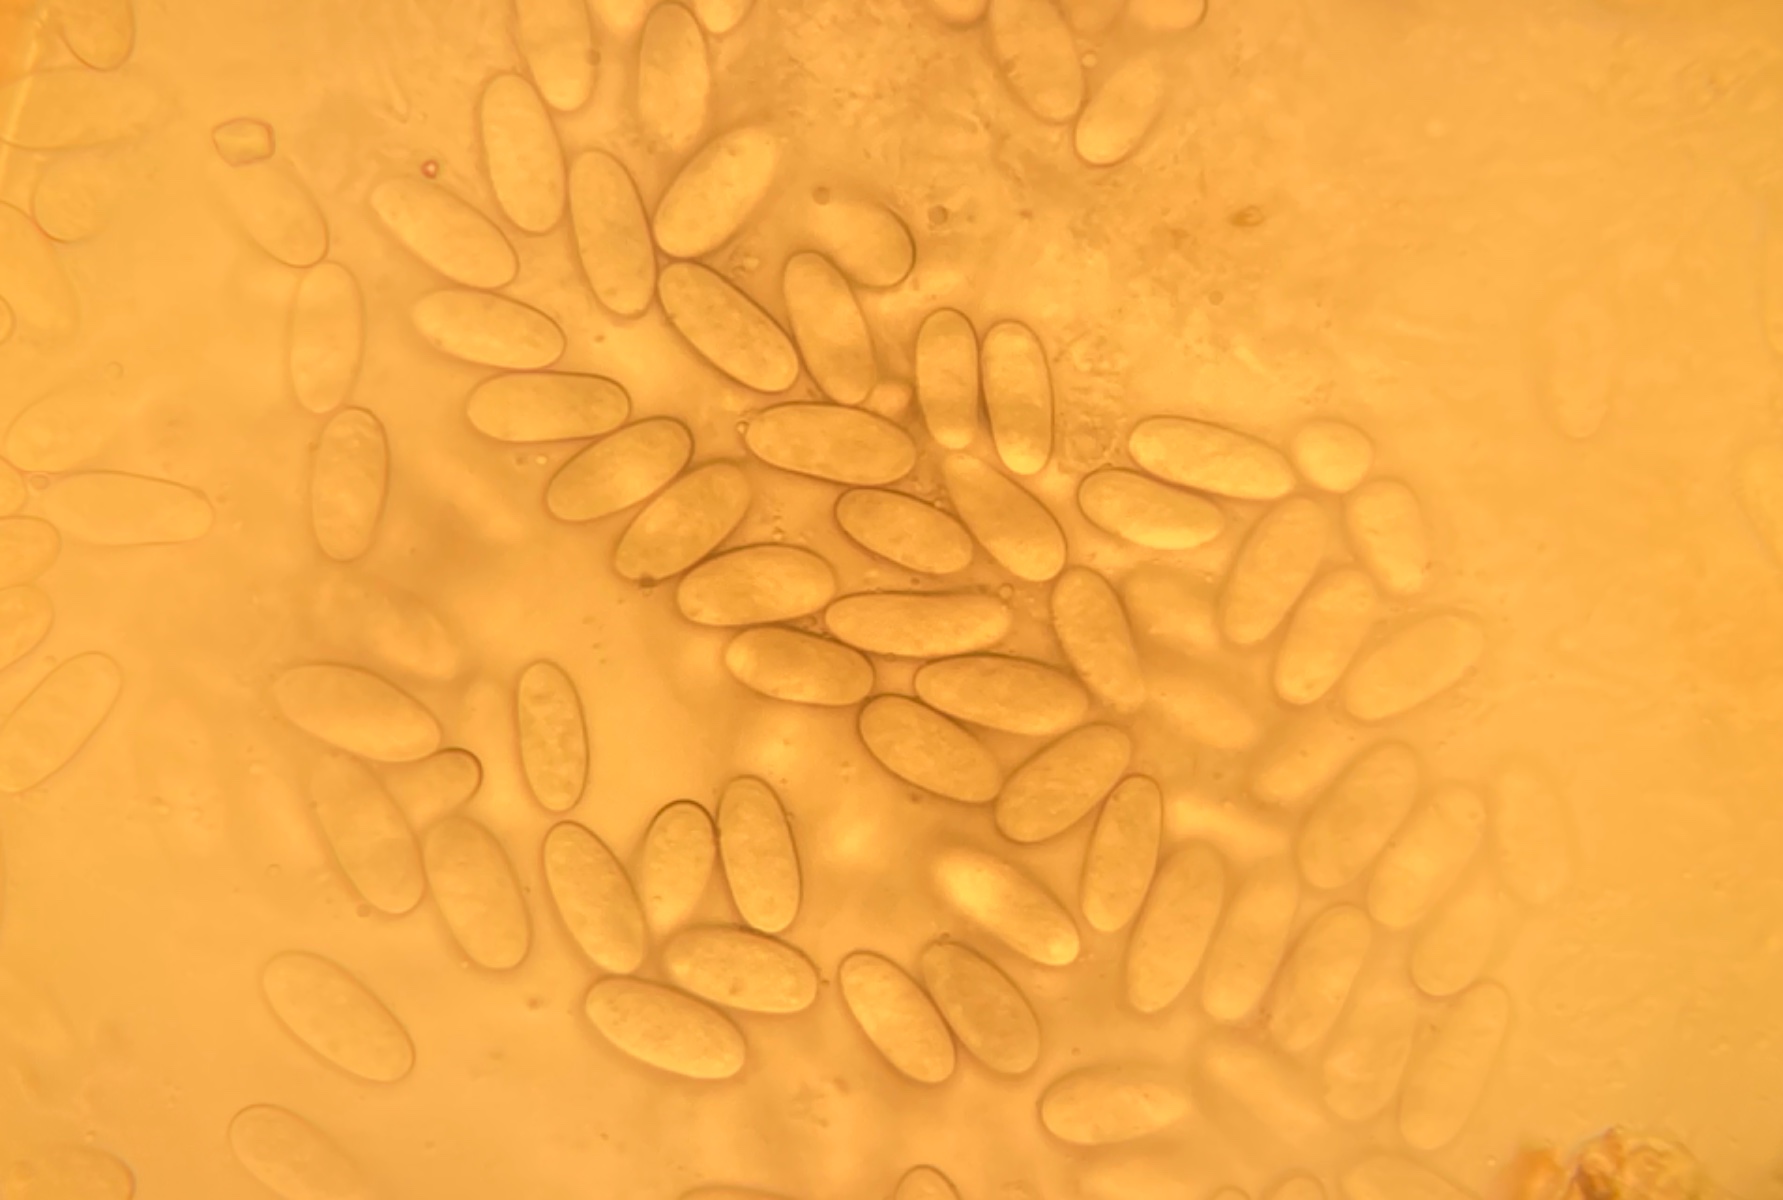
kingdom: Fungi
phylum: Ascomycota
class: Sordariomycetes
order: Diaporthales
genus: Botryodiplodia
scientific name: Botryodiplodia fraxini
